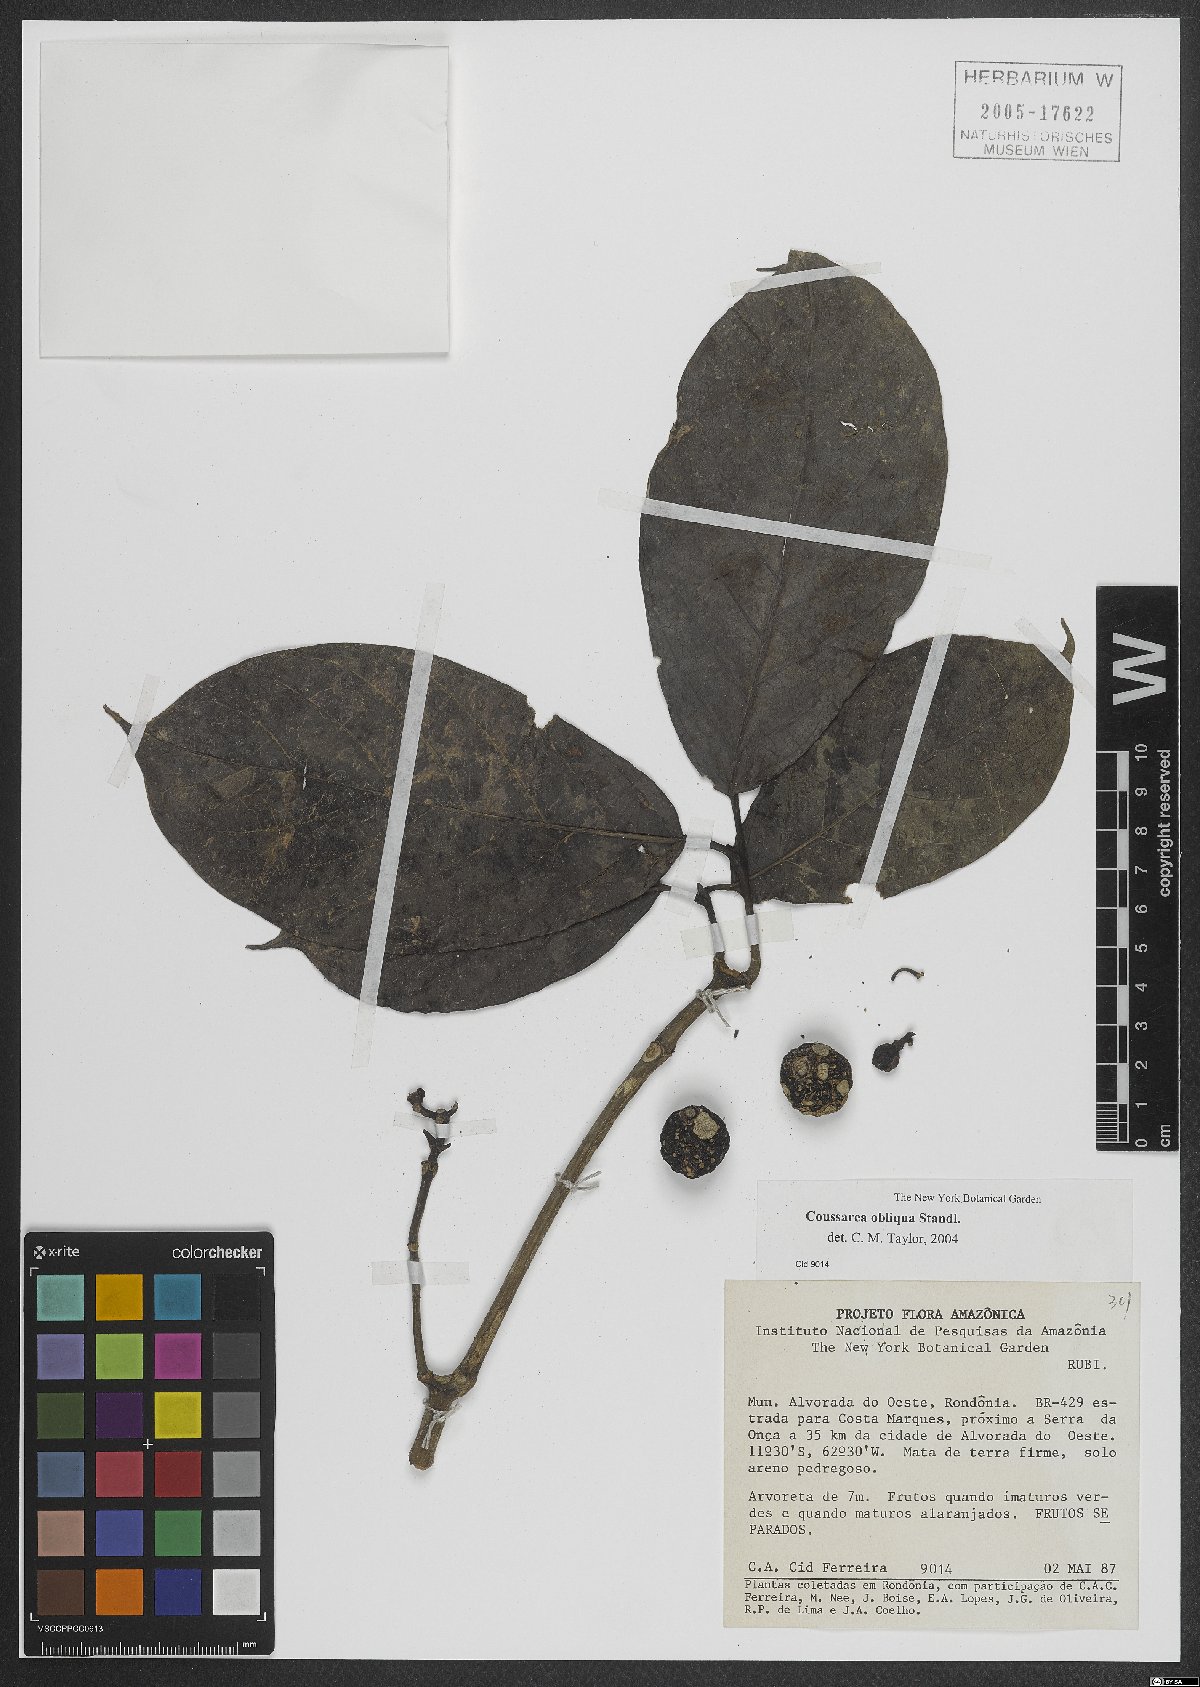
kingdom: Plantae
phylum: Tracheophyta
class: Magnoliopsida
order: Gentianales
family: Rubiaceae
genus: Coussarea
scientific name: Coussarea obliqua
